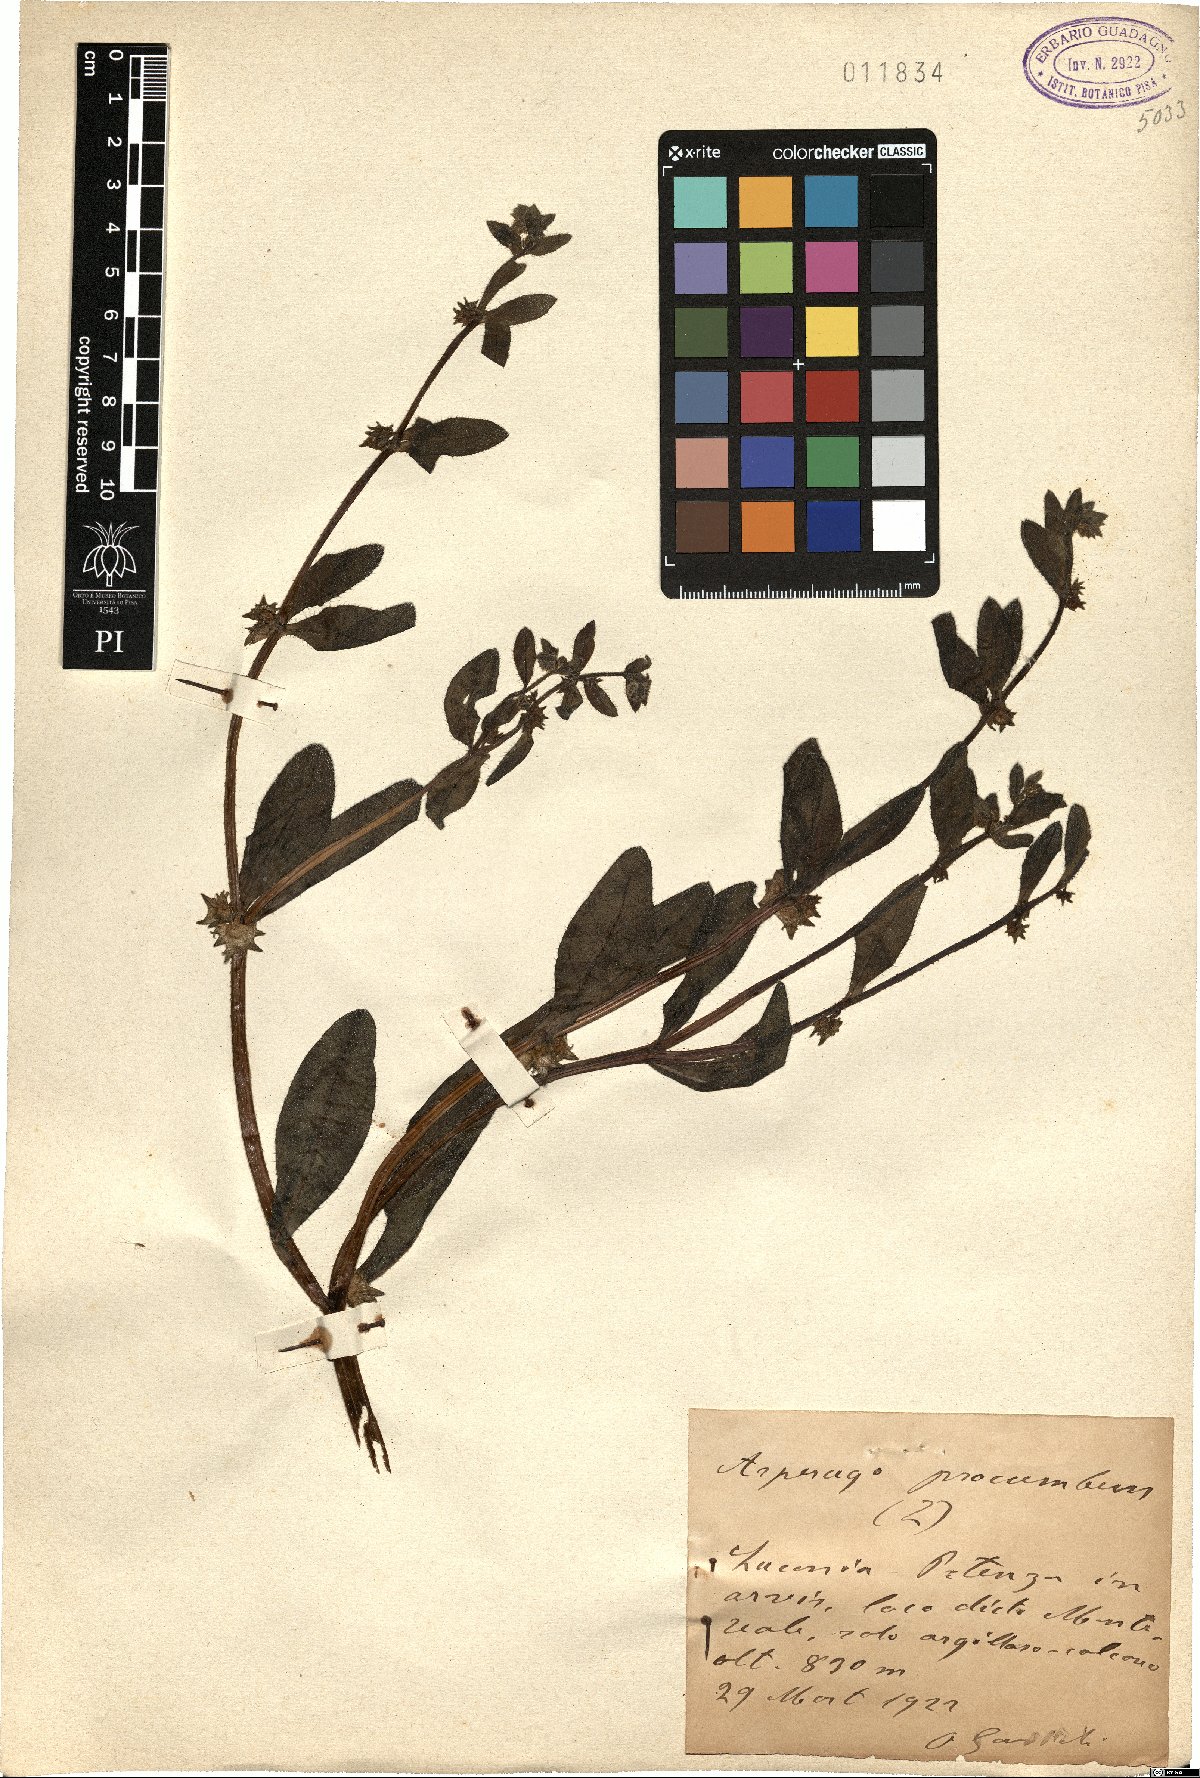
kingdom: Plantae
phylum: Tracheophyta
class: Magnoliopsida
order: Boraginales
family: Boraginaceae
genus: Asperugo
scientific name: Asperugo procumbens
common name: Madwort
